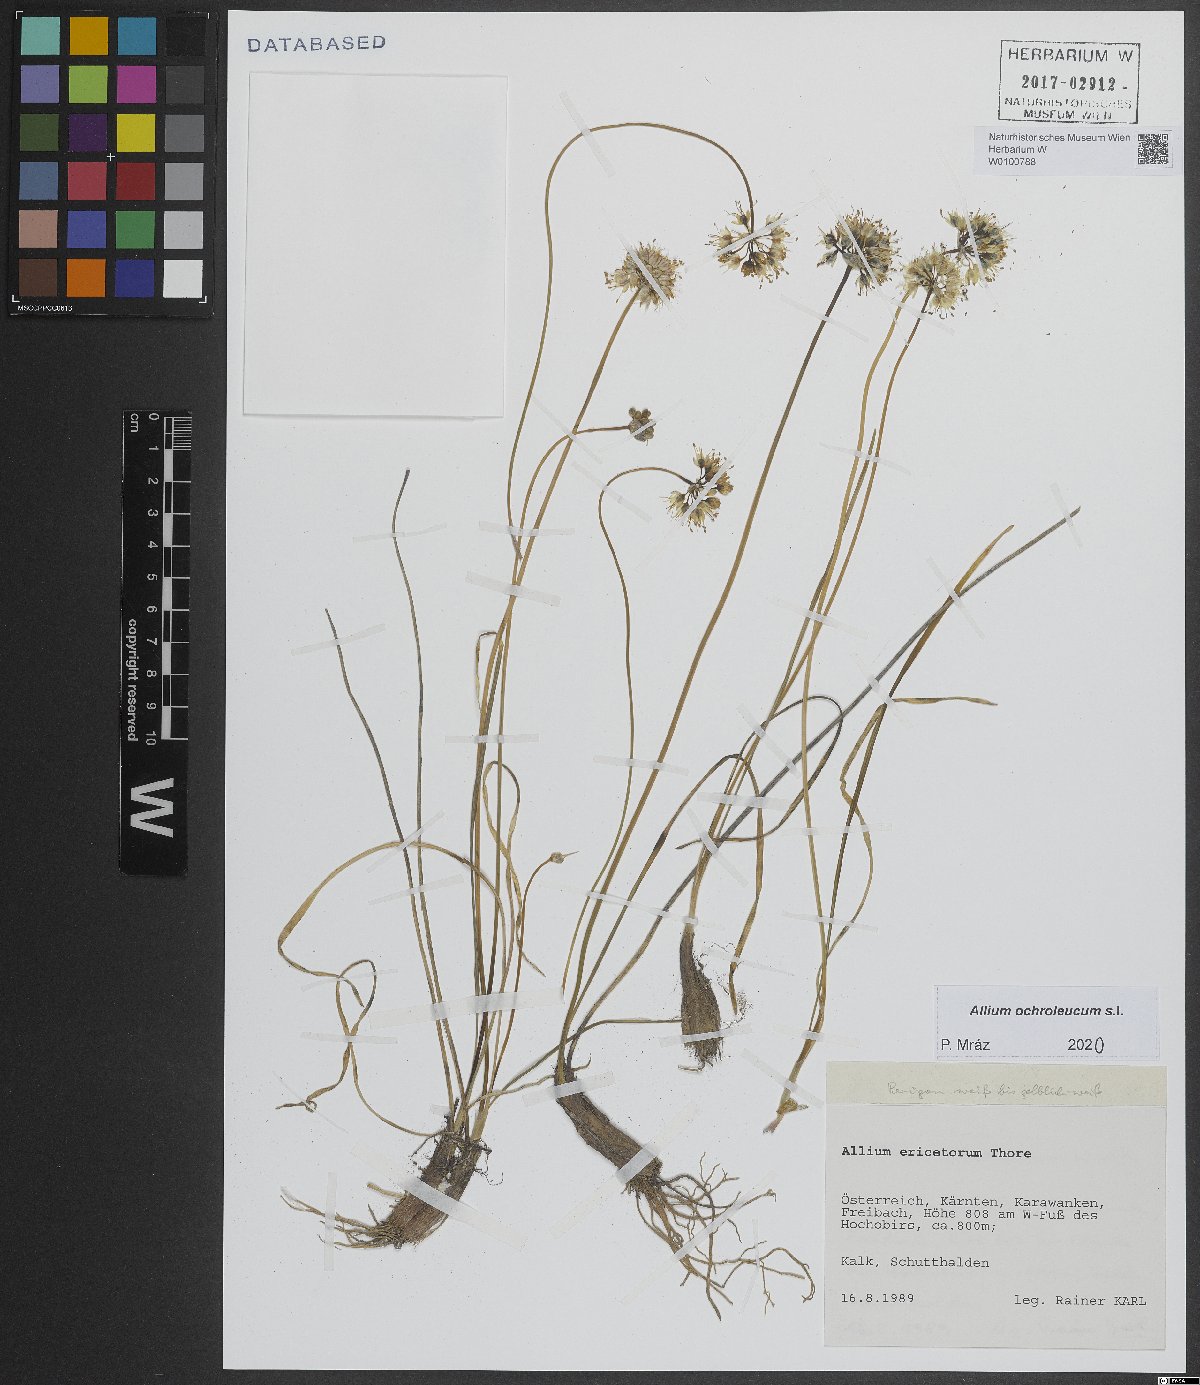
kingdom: Plantae
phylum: Tracheophyta
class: Liliopsida
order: Asparagales
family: Amaryllidaceae
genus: Allium
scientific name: Allium ericetorum
